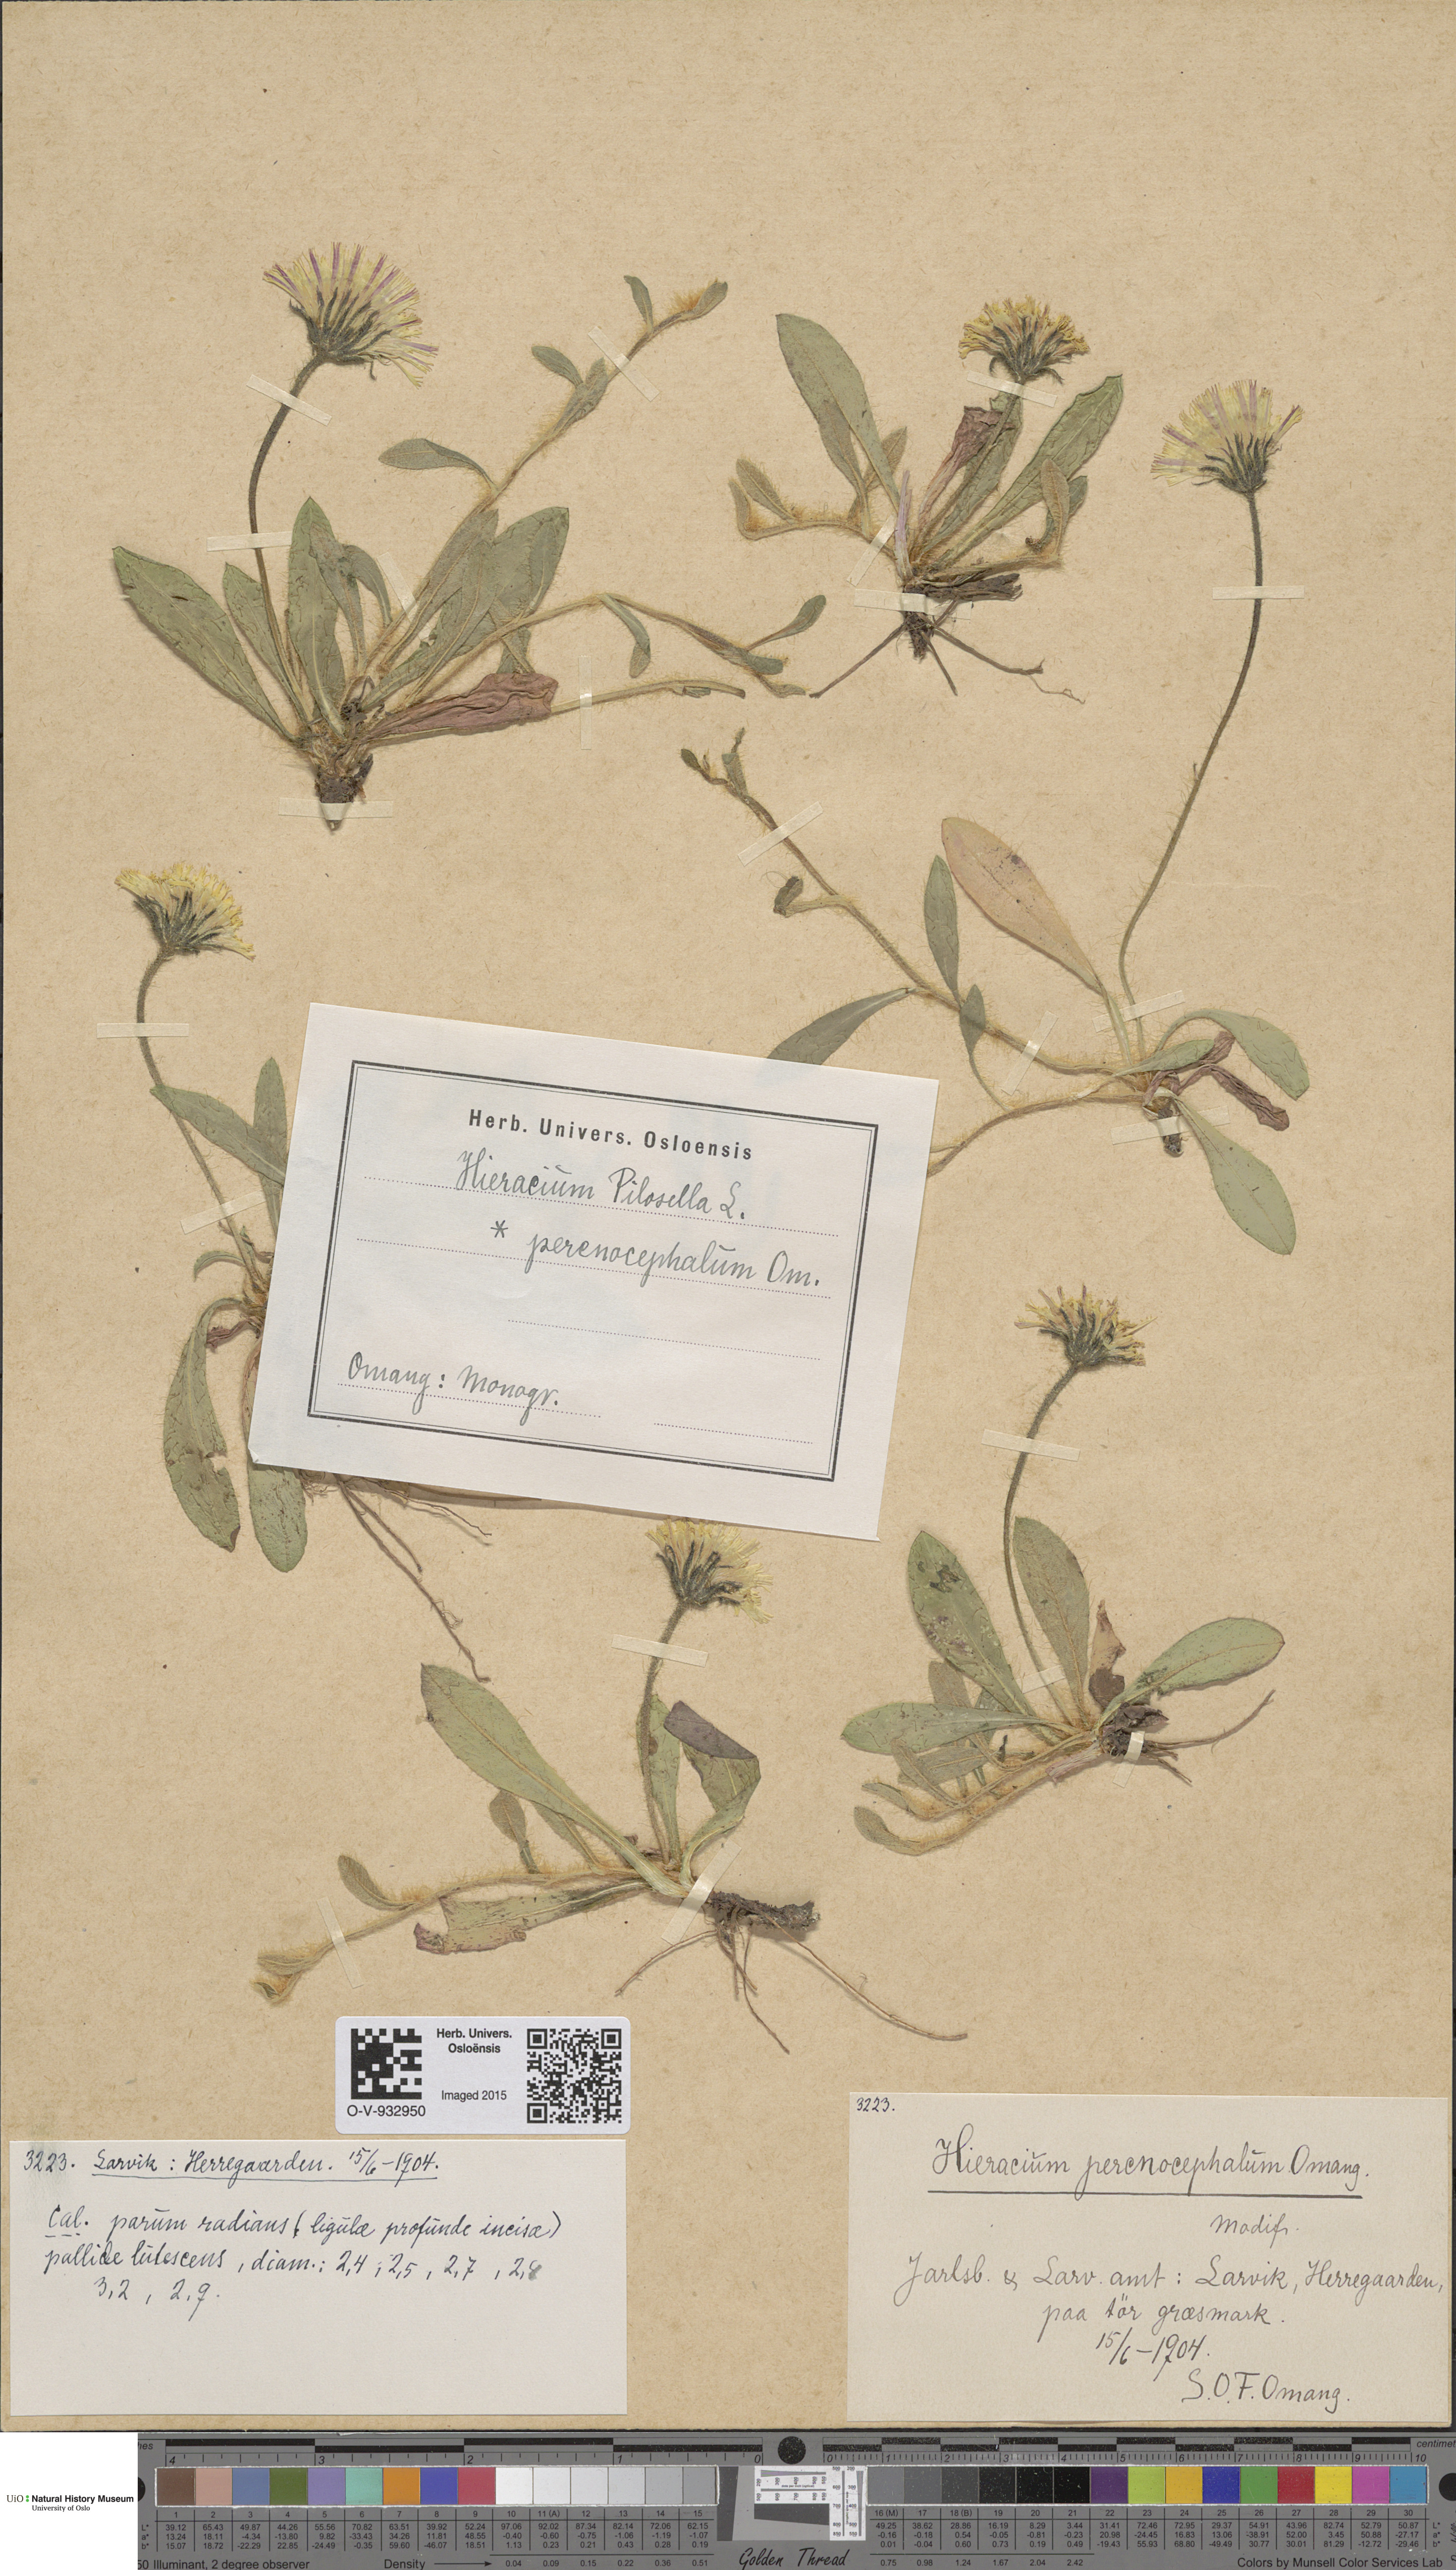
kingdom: Plantae
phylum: Tracheophyta
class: Magnoliopsida
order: Asterales
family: Asteraceae
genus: Pilosella
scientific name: Pilosella officinarum
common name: Mouse-ear hawkweed
